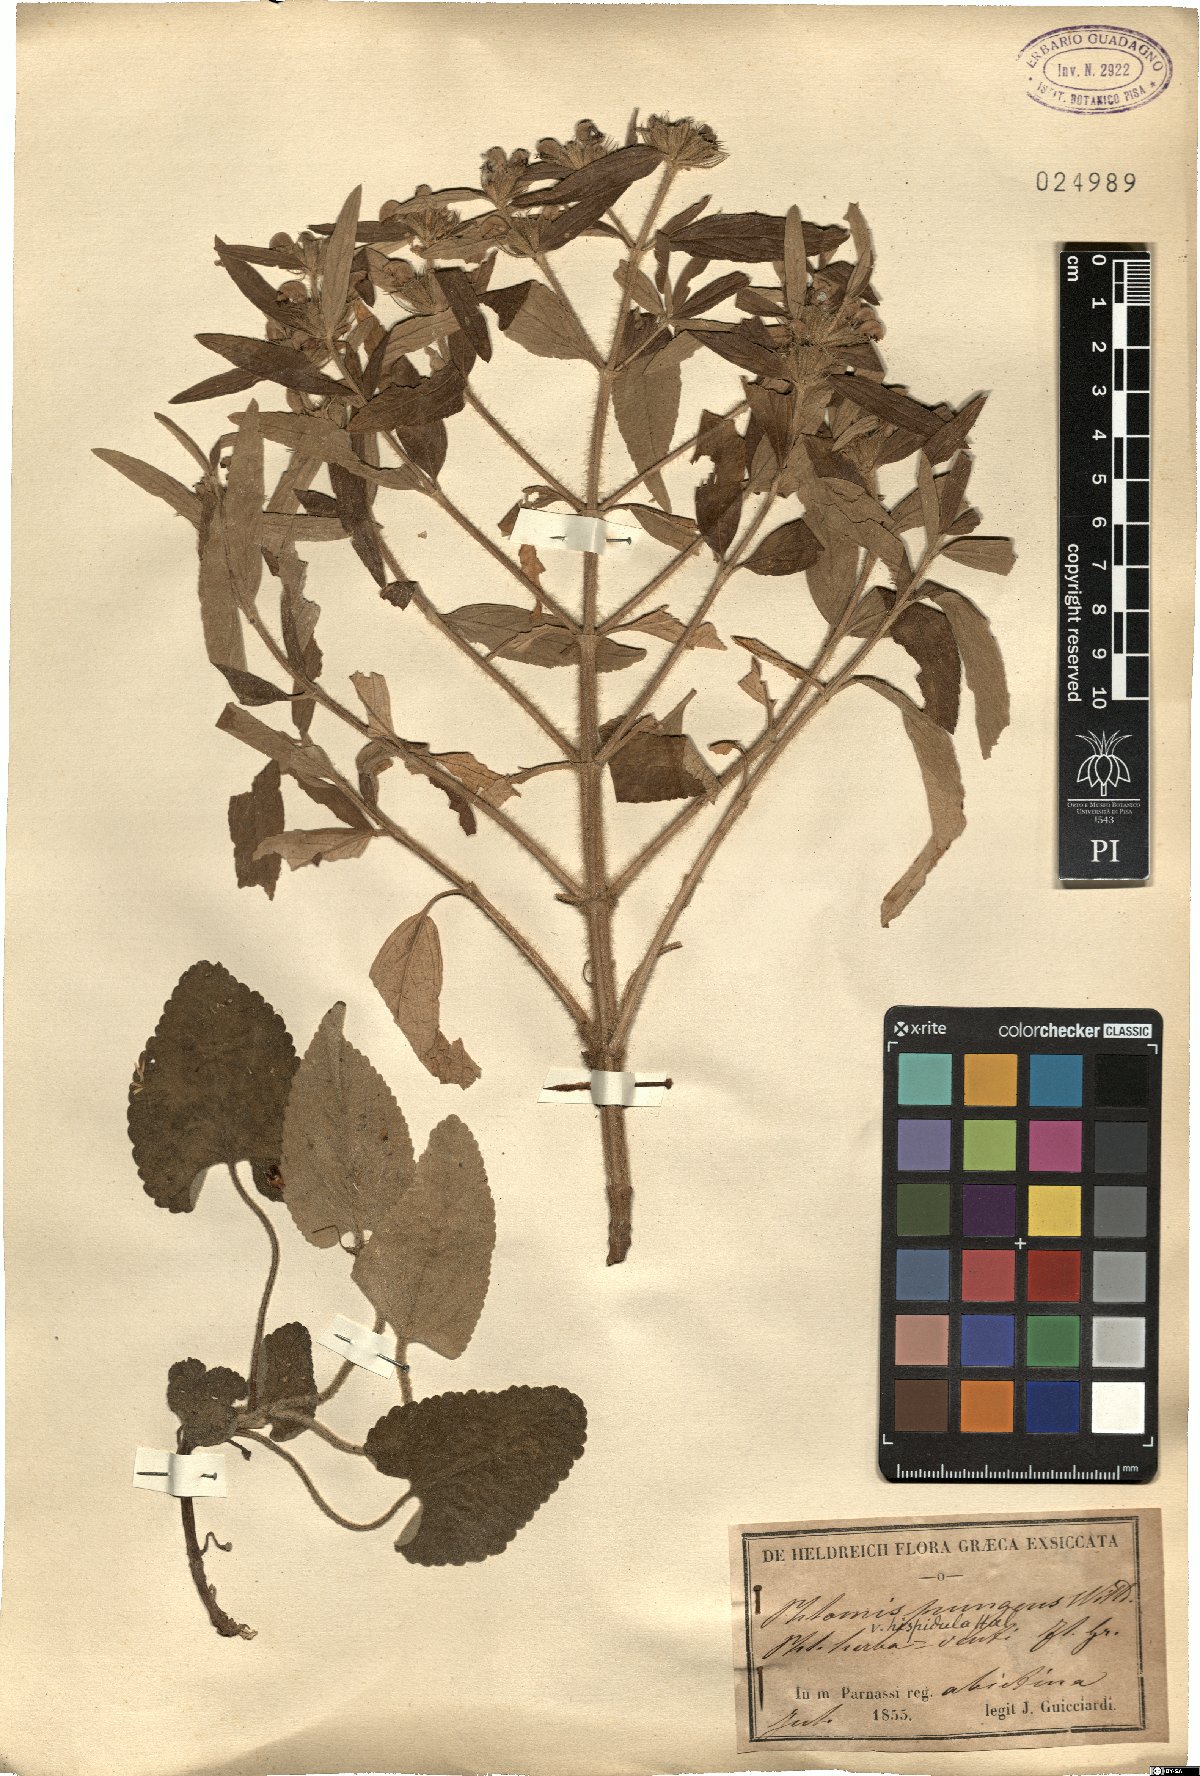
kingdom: Plantae
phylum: Tracheophyta
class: Magnoliopsida
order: Lamiales
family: Lamiaceae
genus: Phlomis
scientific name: Phlomis herba-venti
